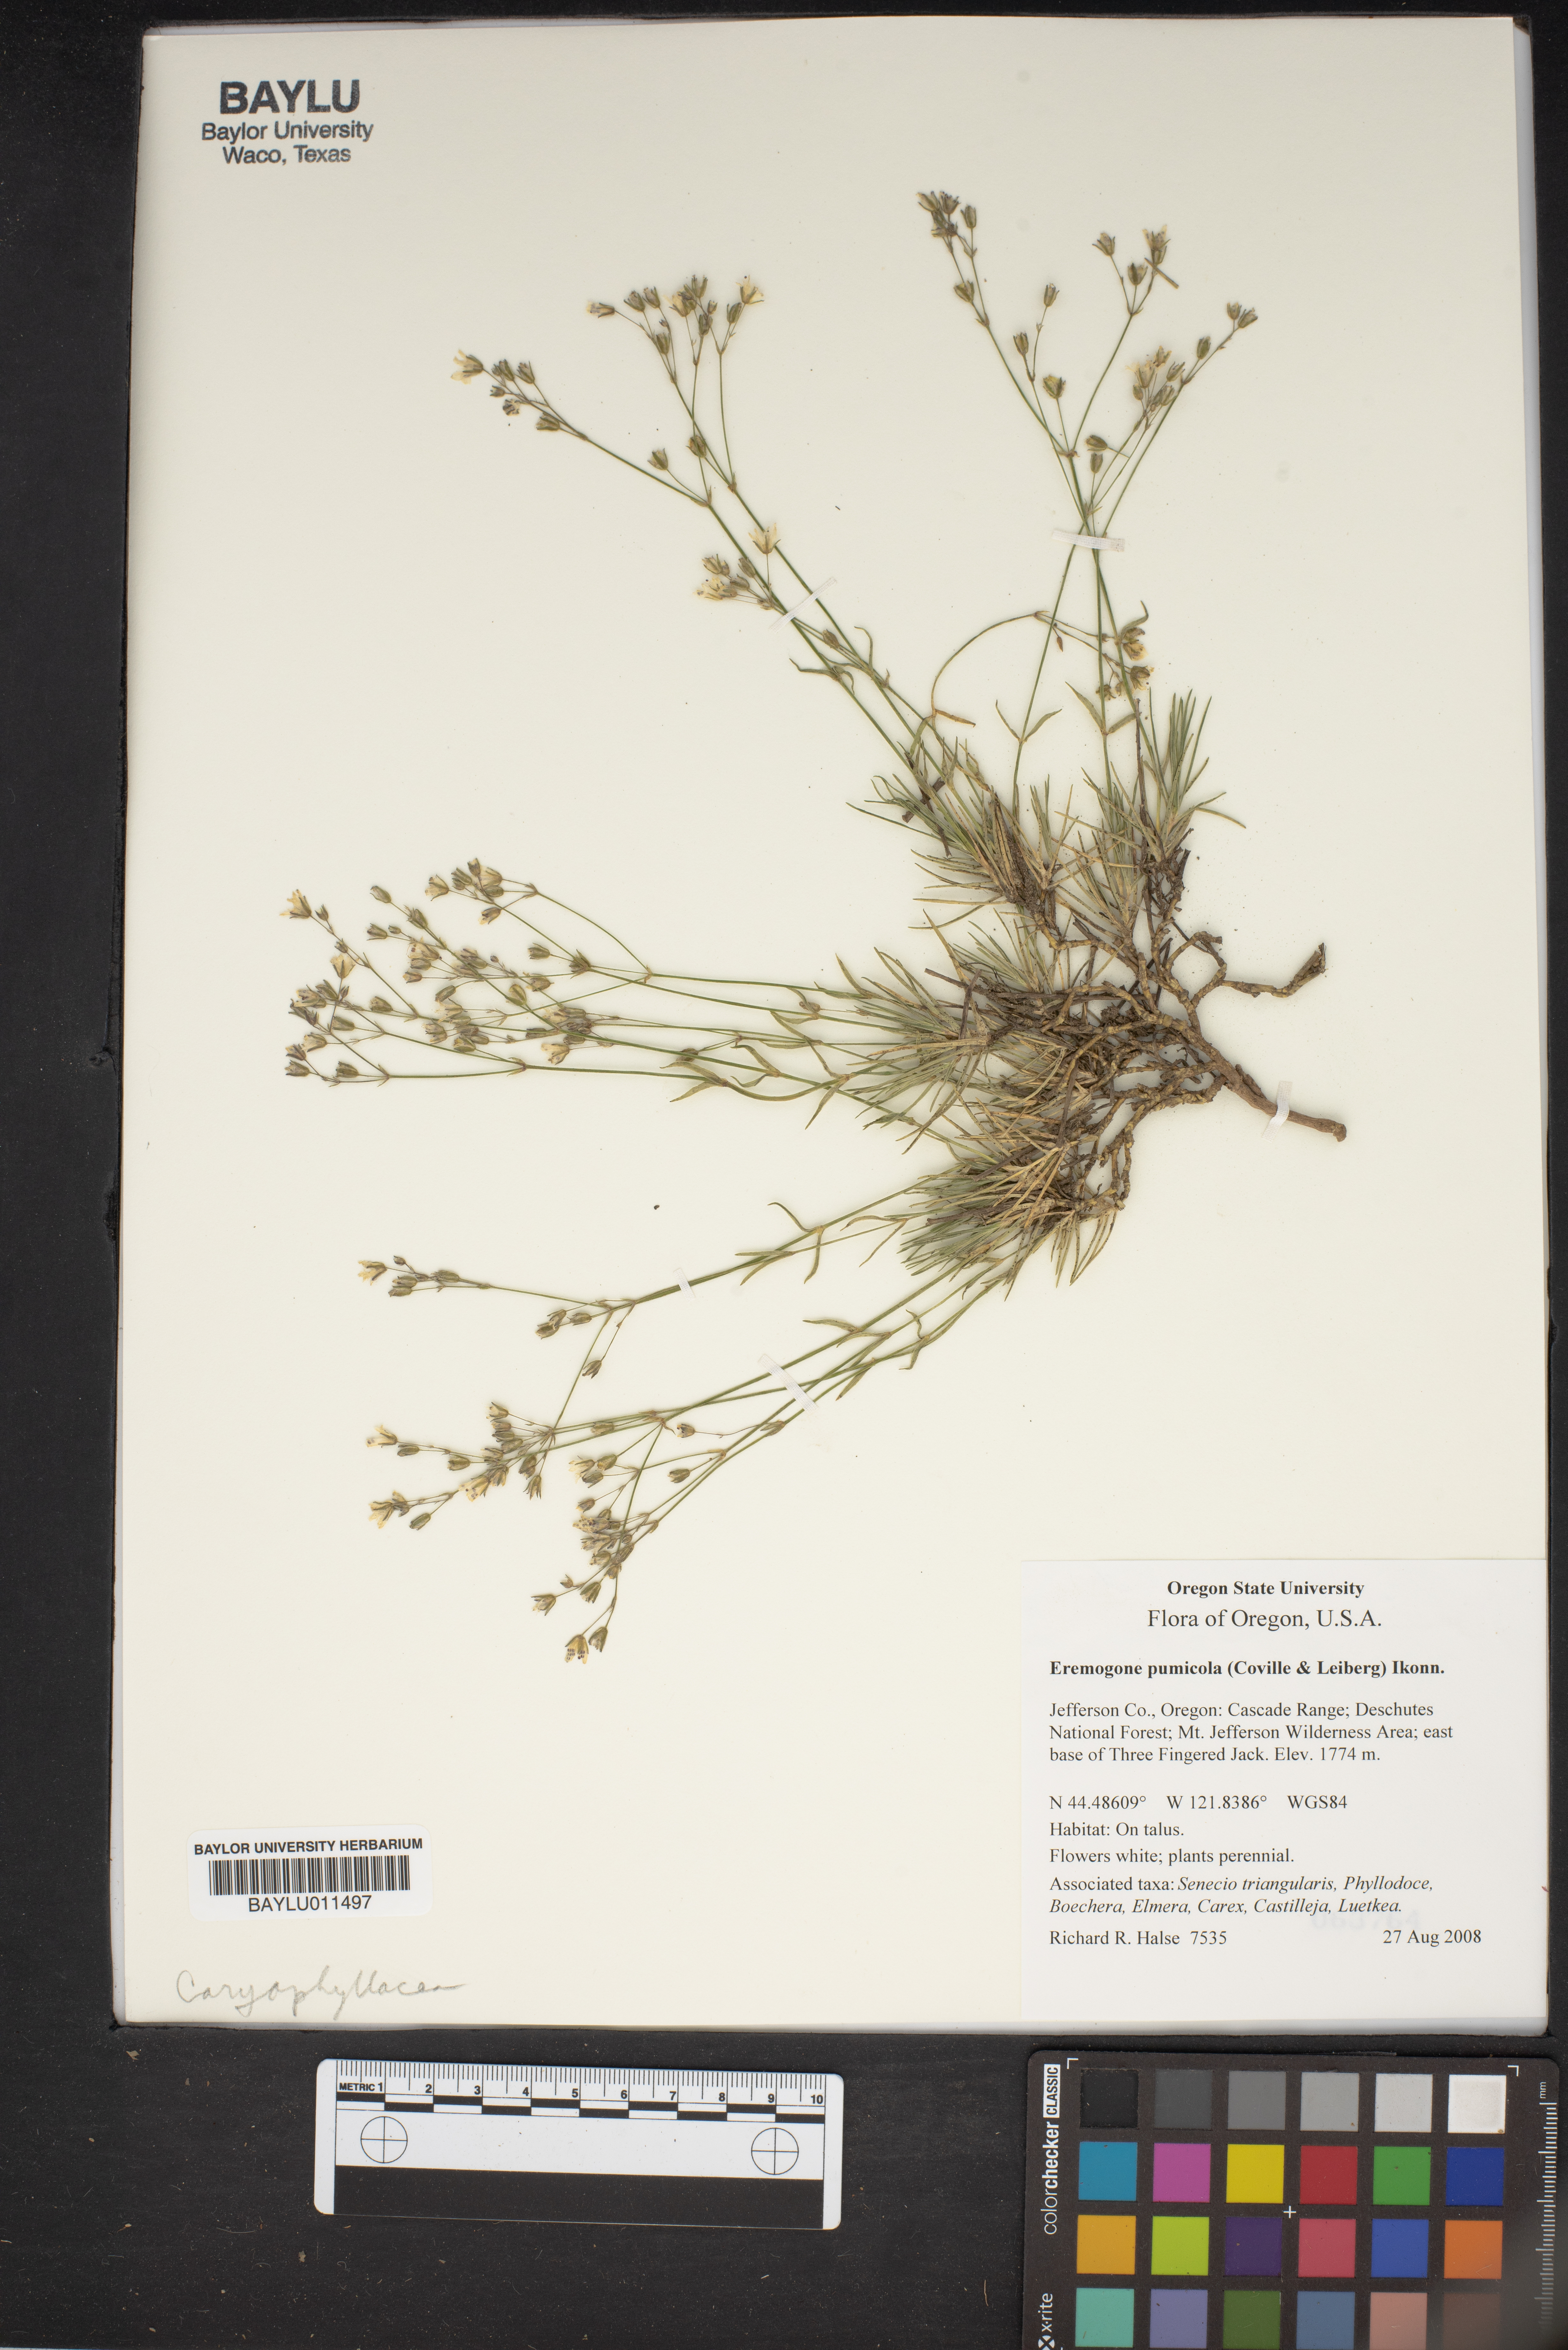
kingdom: Plantae
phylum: Tracheophyta
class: Magnoliopsida
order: Caryophyllales
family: Caryophyllaceae
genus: Eremogone
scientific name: Eremogone pumicola
